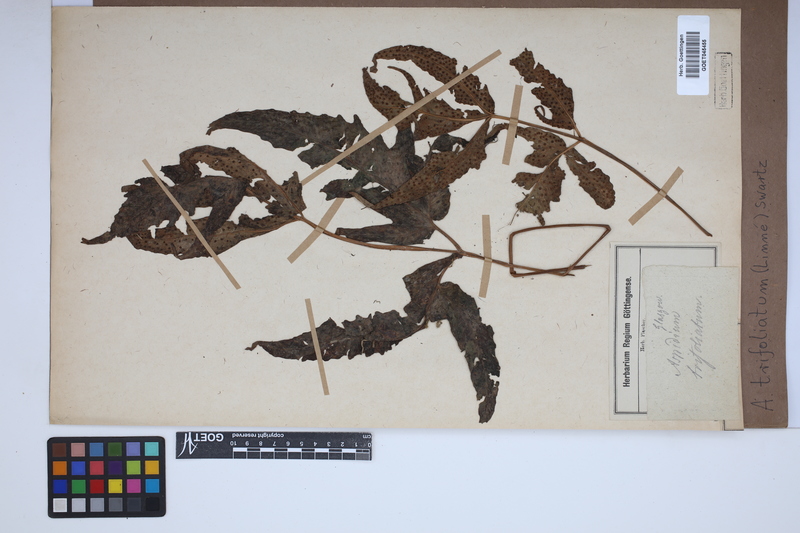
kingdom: Plantae
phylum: Tracheophyta
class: Polypodiopsida
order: Polypodiales
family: Tectariaceae
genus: Tectaria
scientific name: Tectaria trifoliata
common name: Threeleaf halberd fern
